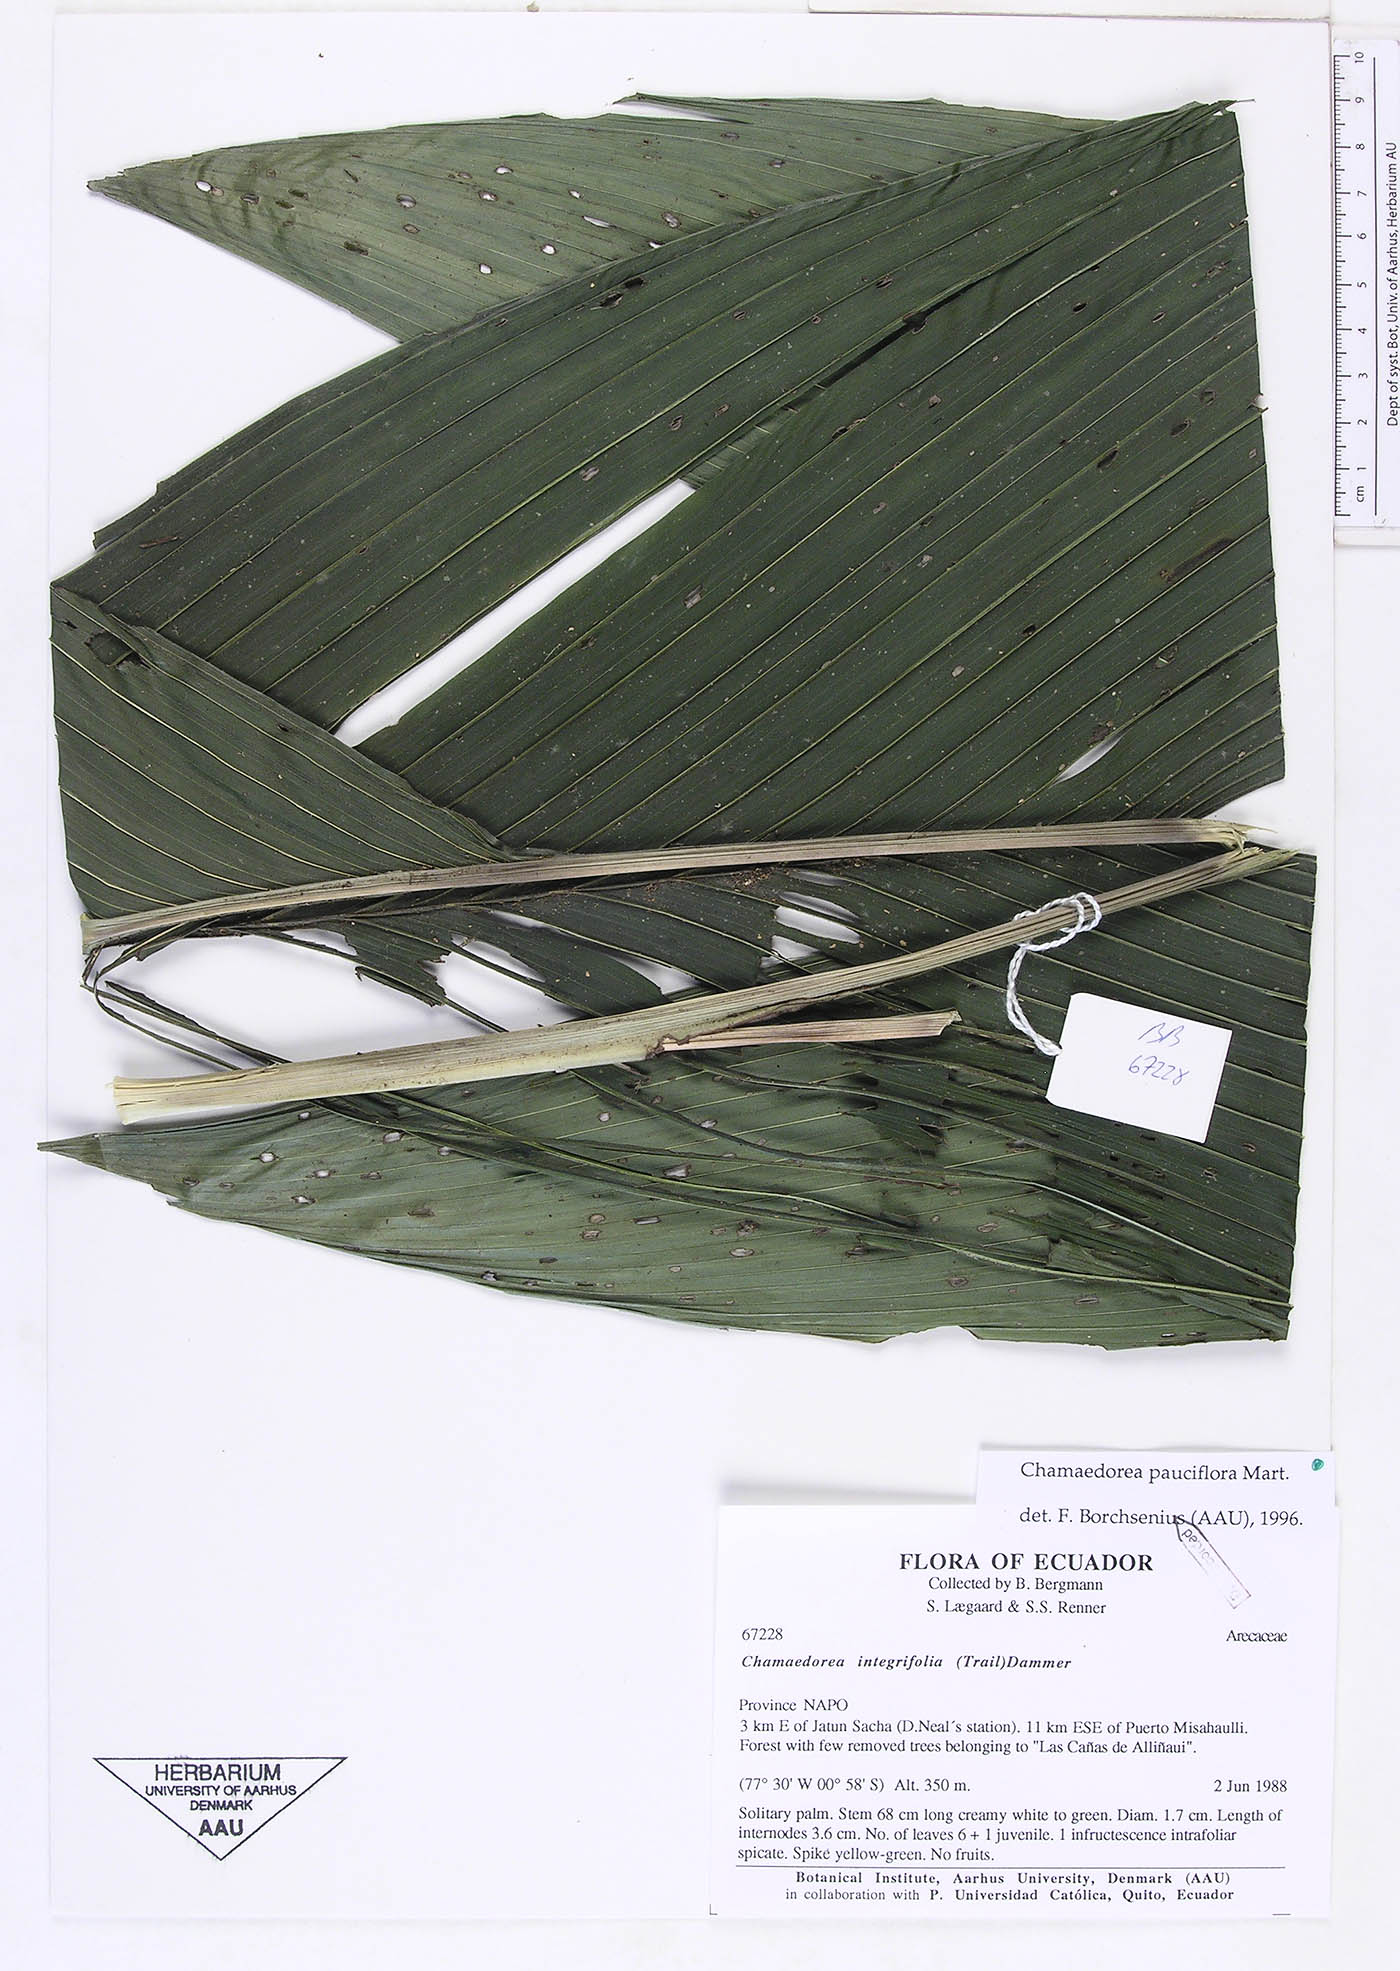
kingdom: Plantae
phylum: Tracheophyta
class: Liliopsida
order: Arecales
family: Arecaceae
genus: Chamaedorea
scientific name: Chamaedorea pauciflora
